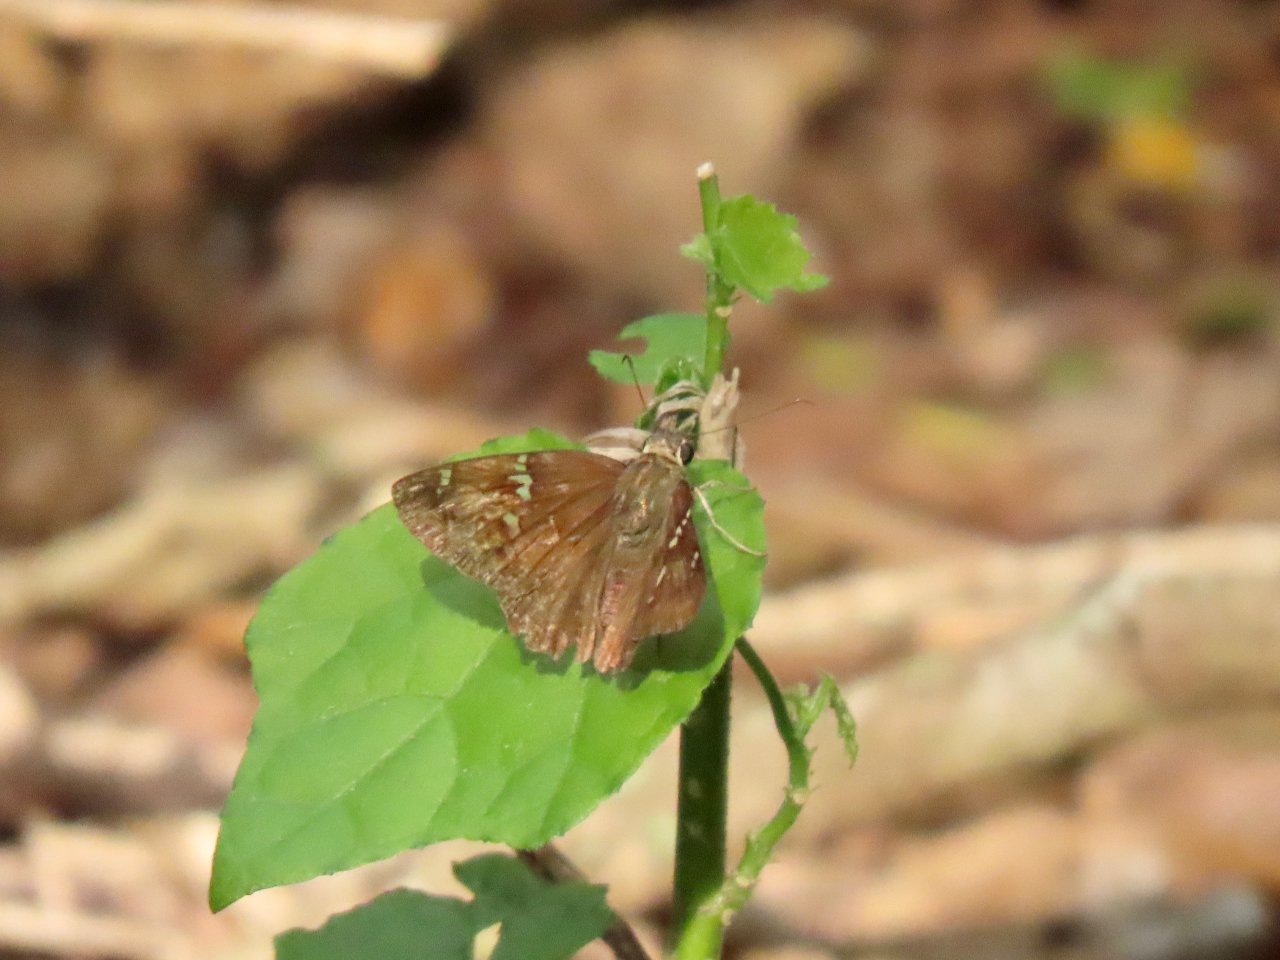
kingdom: Animalia
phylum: Arthropoda
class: Insecta
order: Lepidoptera
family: Hesperiidae
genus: Cabares
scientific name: Cabares potrillo
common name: Potrillo Skipper
